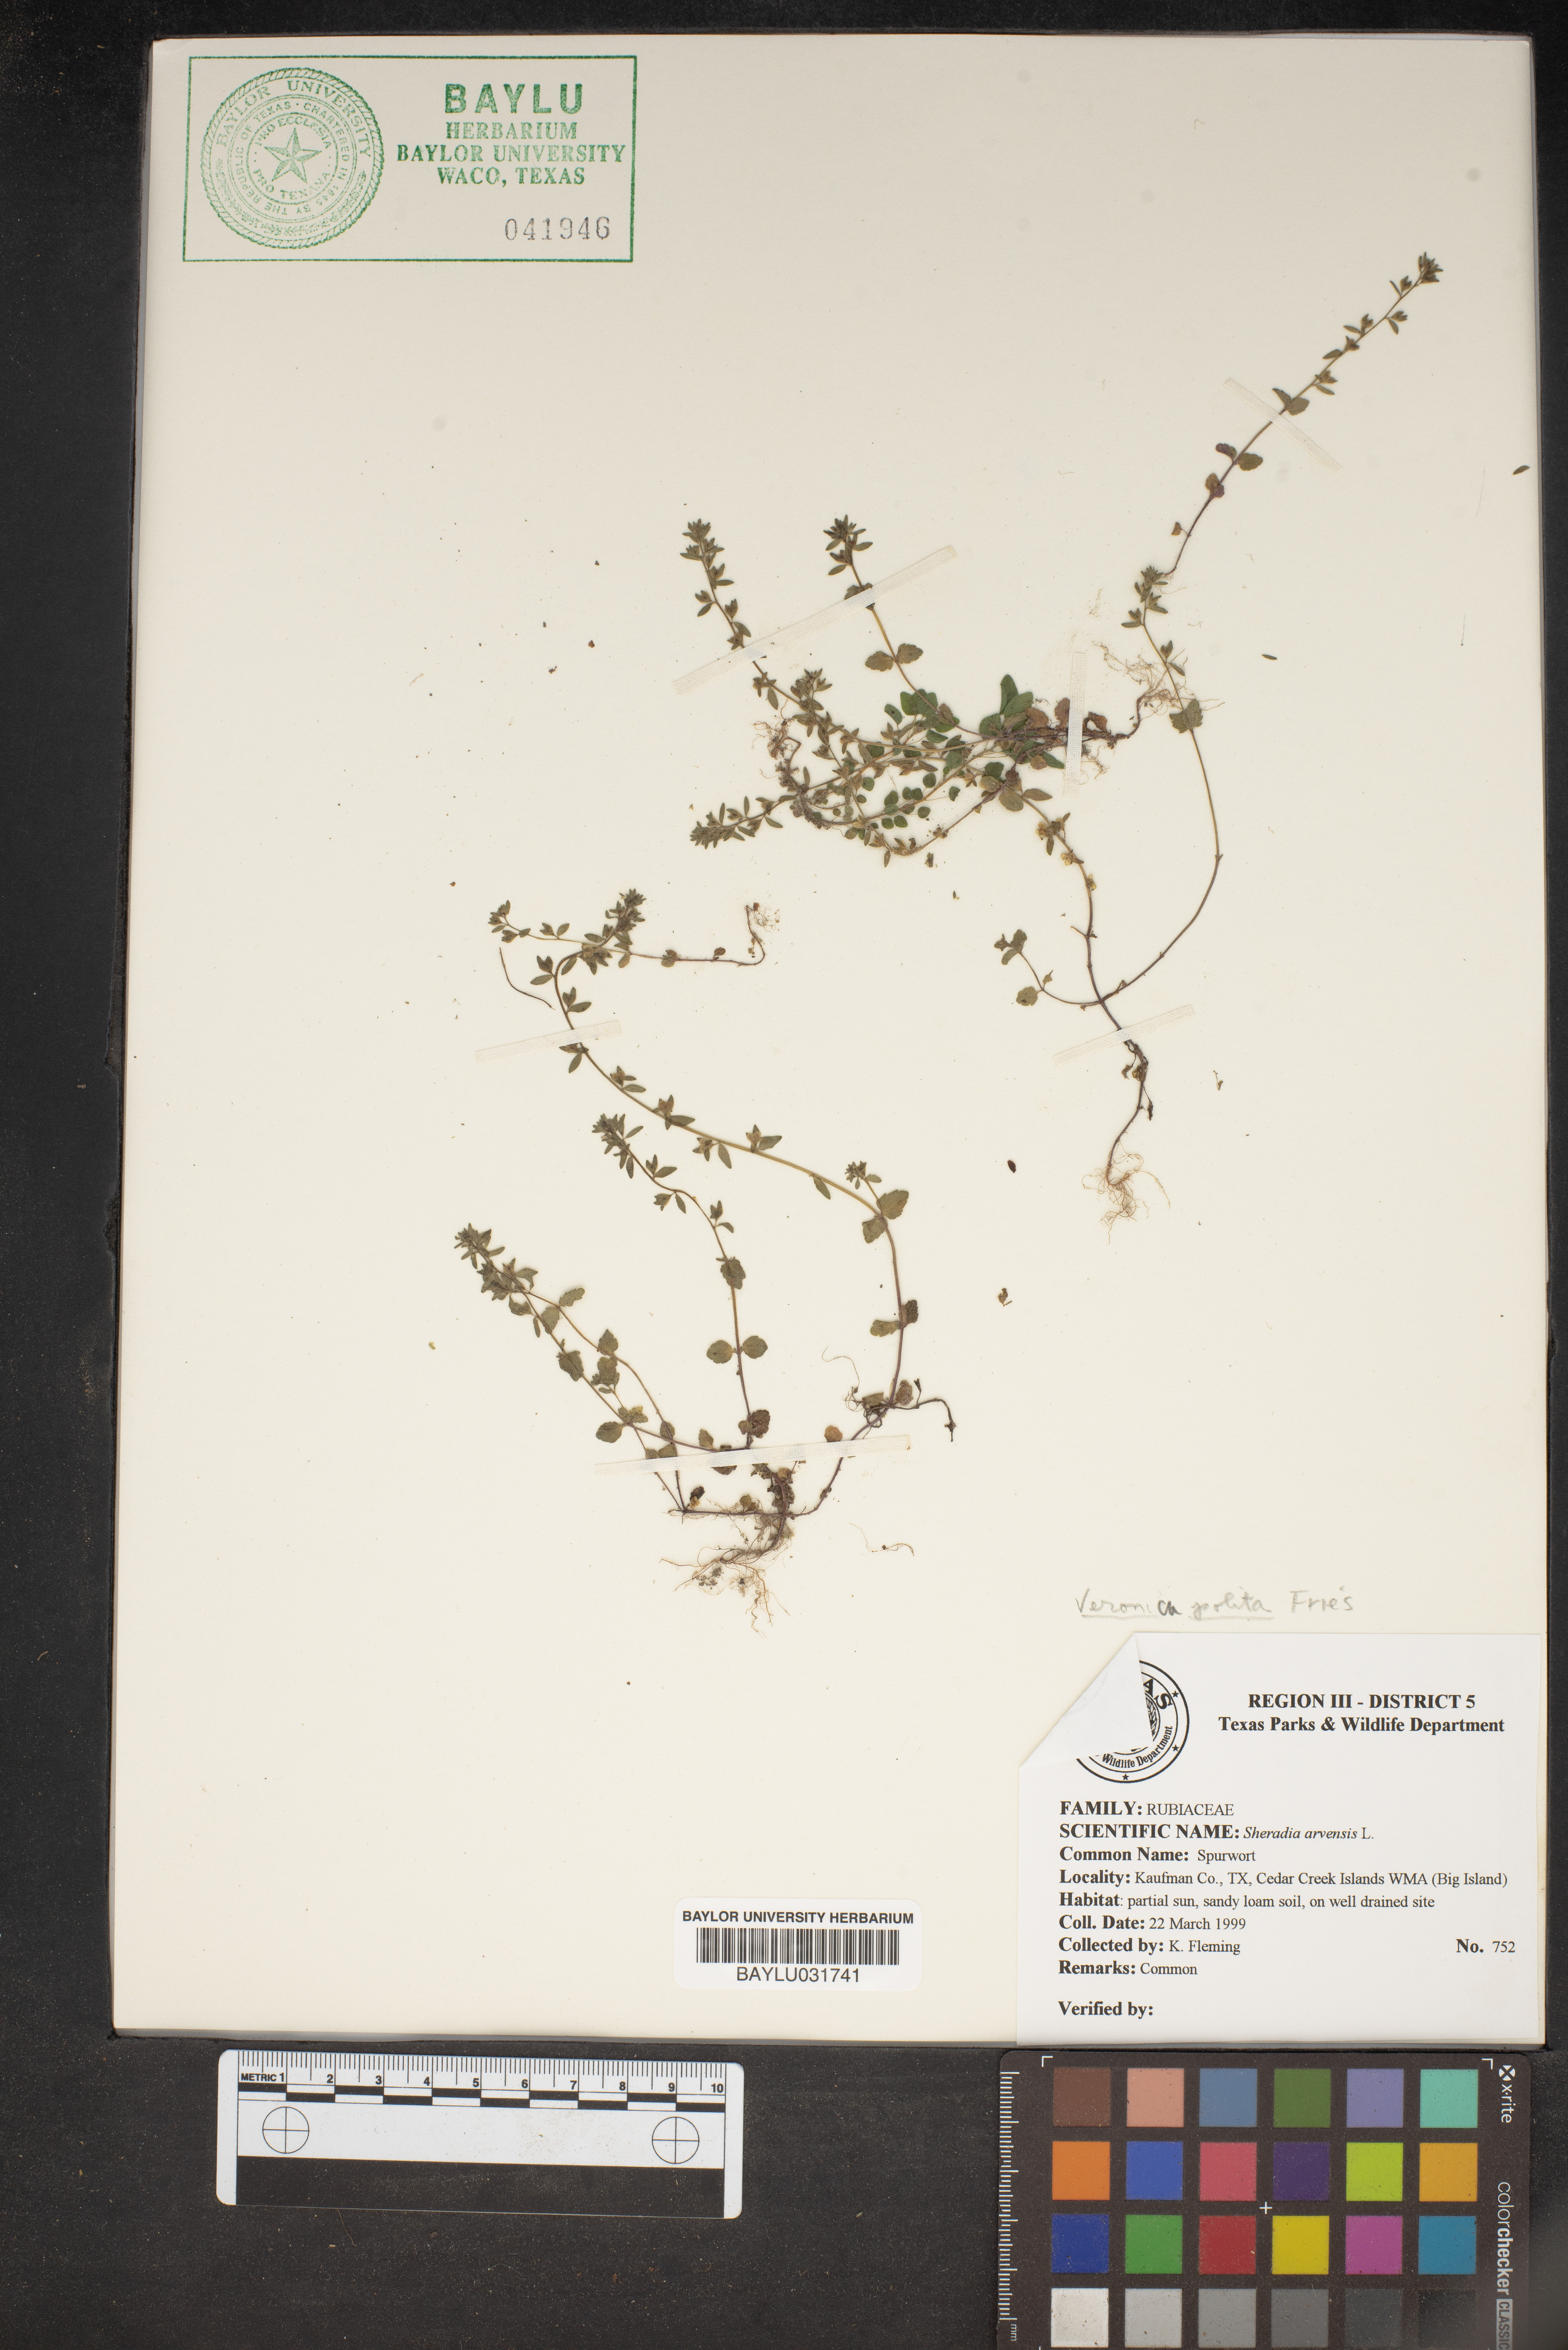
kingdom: Plantae
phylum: Tracheophyta
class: Magnoliopsida
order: Gentianales
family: Rubiaceae
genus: Sherardia
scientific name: Sherardia arvensis
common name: Field madder
